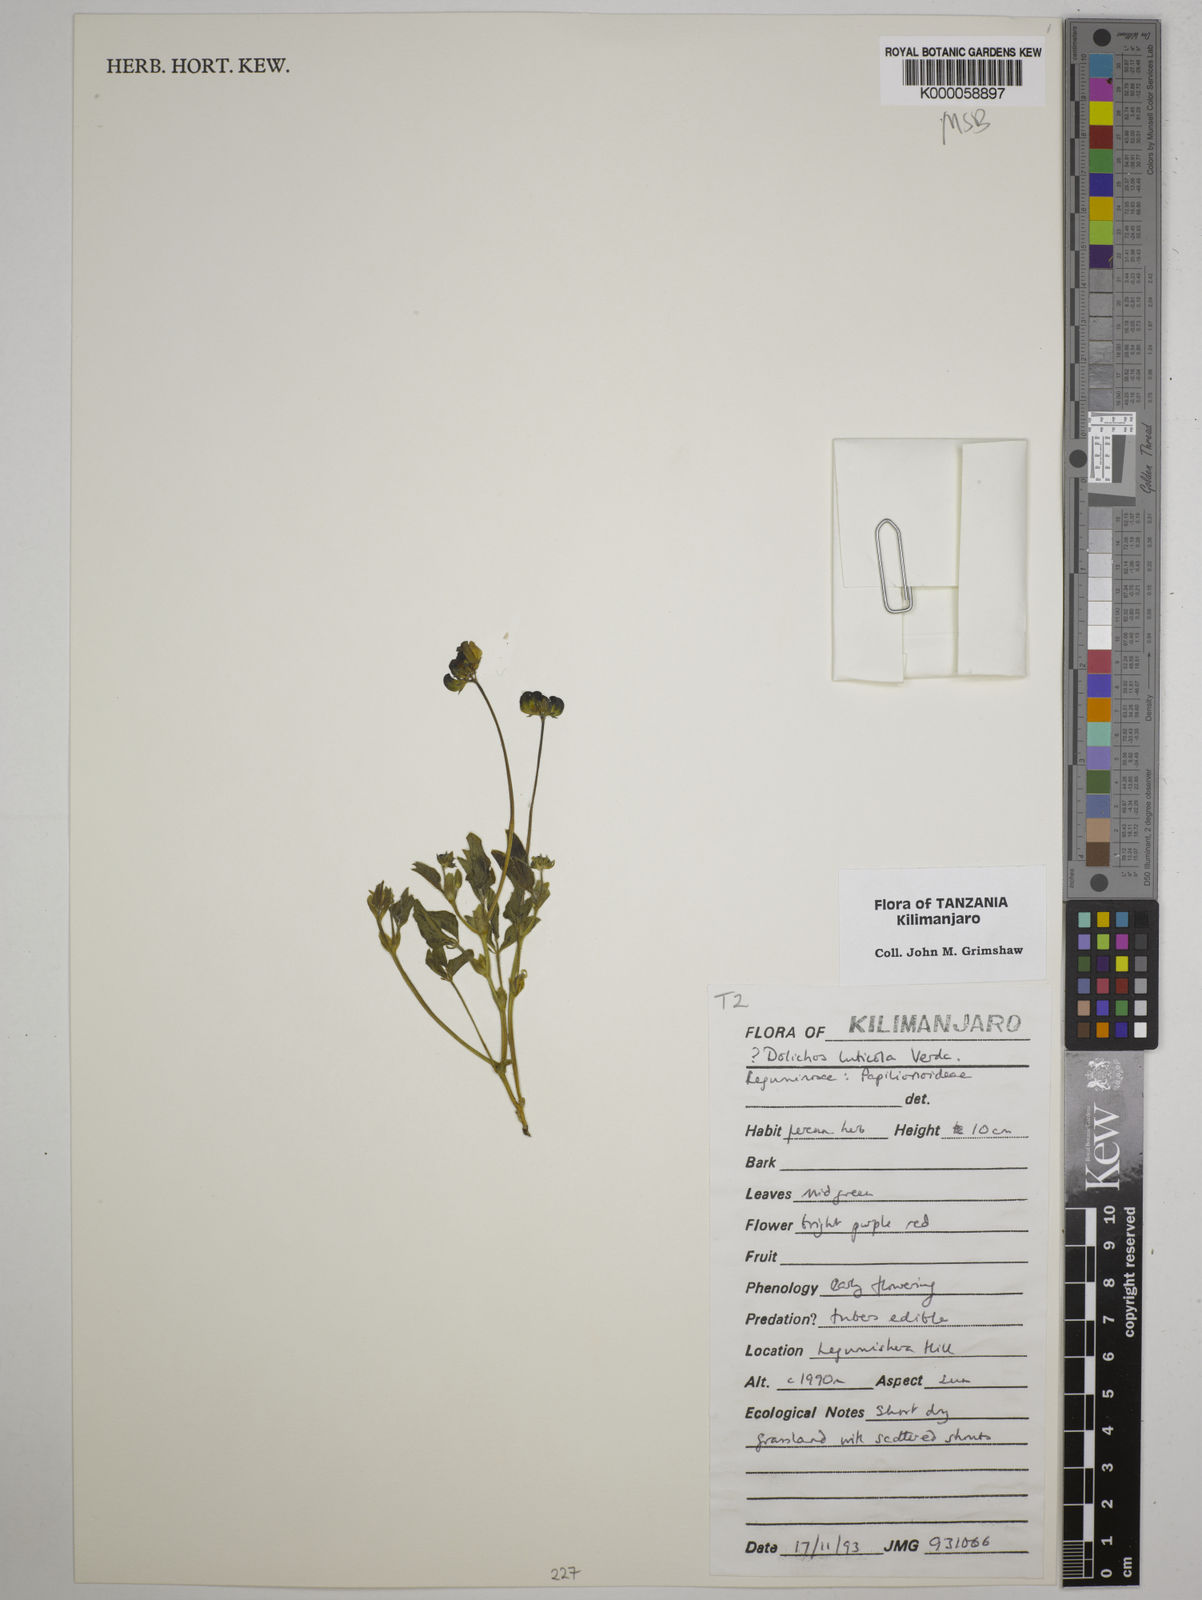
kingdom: Plantae
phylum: Tracheophyta
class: Magnoliopsida
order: Fabales
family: Fabaceae
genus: Dolichos
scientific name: Dolichos luticola
